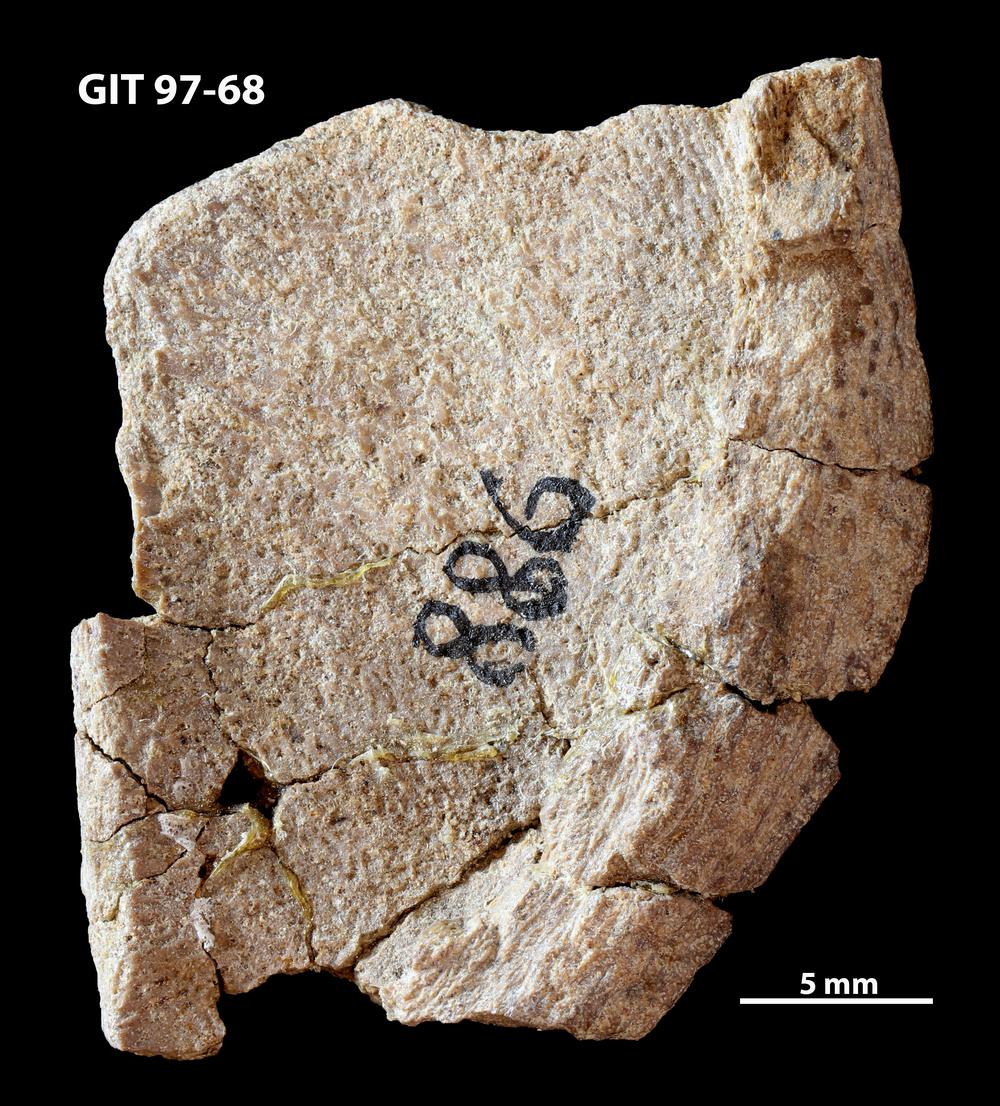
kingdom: Animalia
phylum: Chordata
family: Holonematidae
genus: Holonema
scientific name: Holonema
